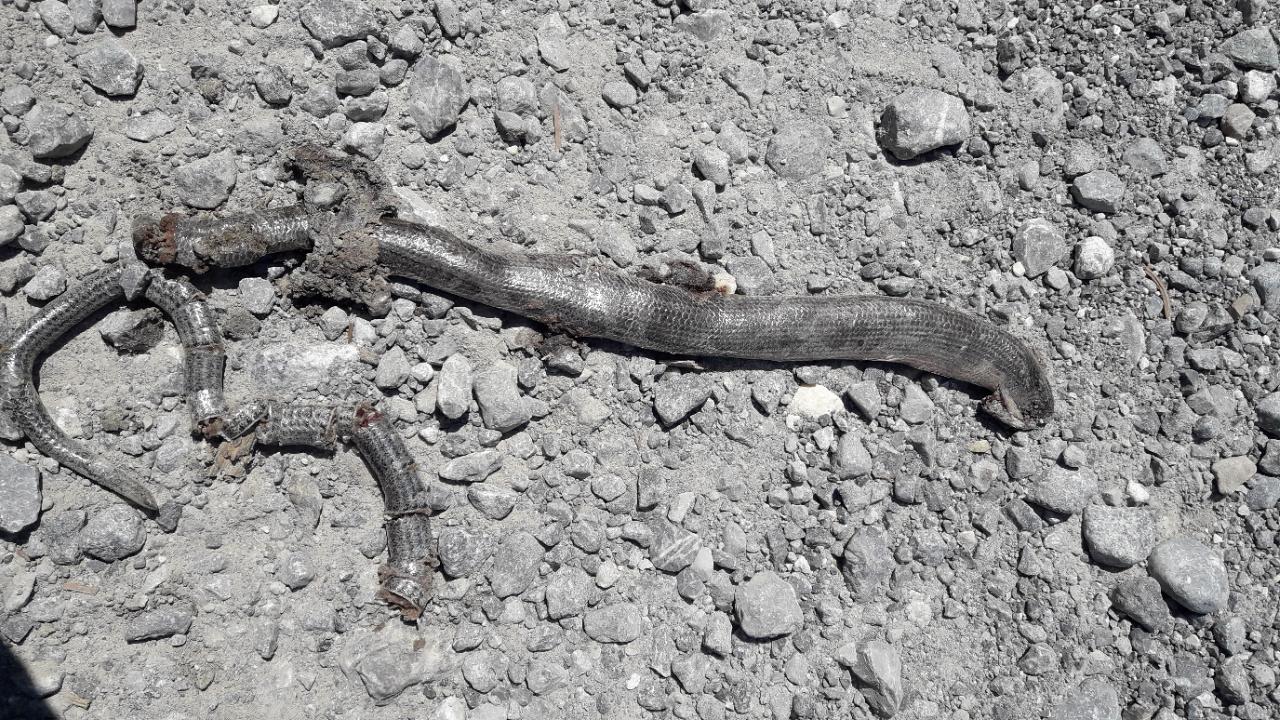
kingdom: Animalia
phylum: Chordata
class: Squamata
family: Anguidae
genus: Anguis
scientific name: Anguis fragilis
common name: Slow worm
